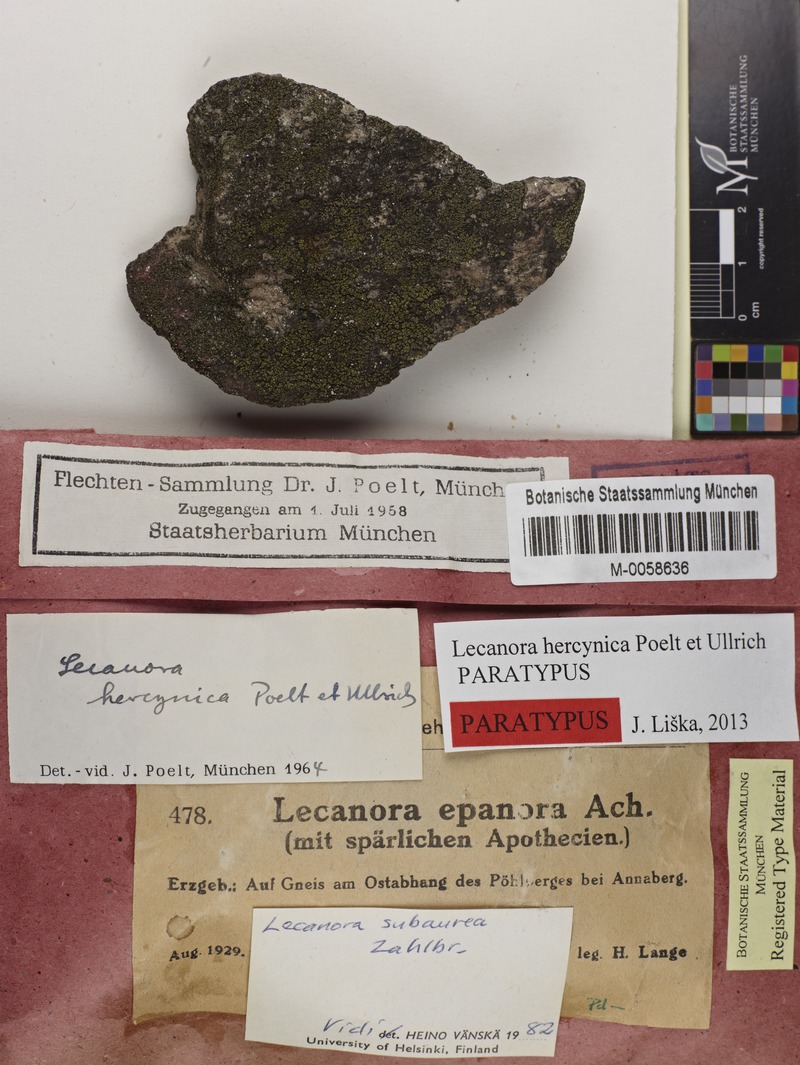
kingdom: Fungi
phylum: Ascomycota
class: Lecanoromycetes
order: Lecanorales
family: Lecanoraceae
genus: Lecanora
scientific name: Lecanora subaurea
